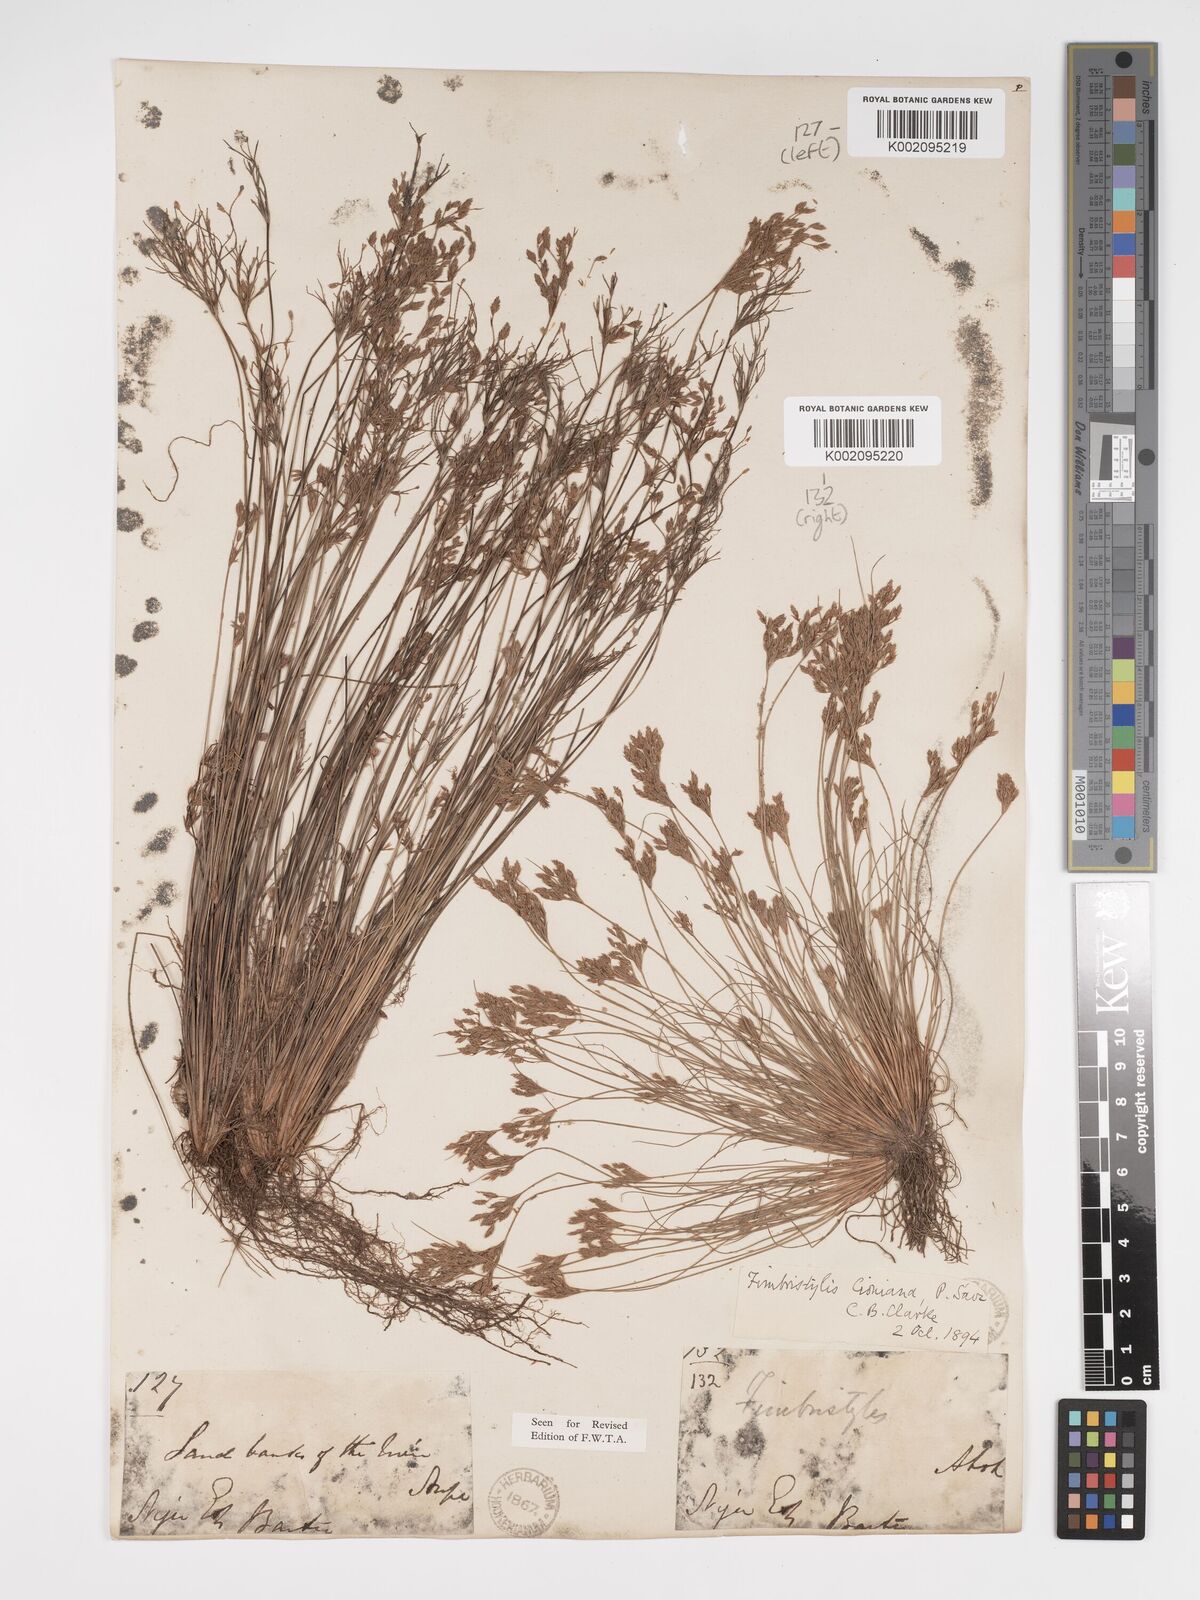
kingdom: Plantae
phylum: Tracheophyta
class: Liliopsida
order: Poales
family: Cyperaceae
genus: Bulbostylis
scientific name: Bulbostylis cioniana
